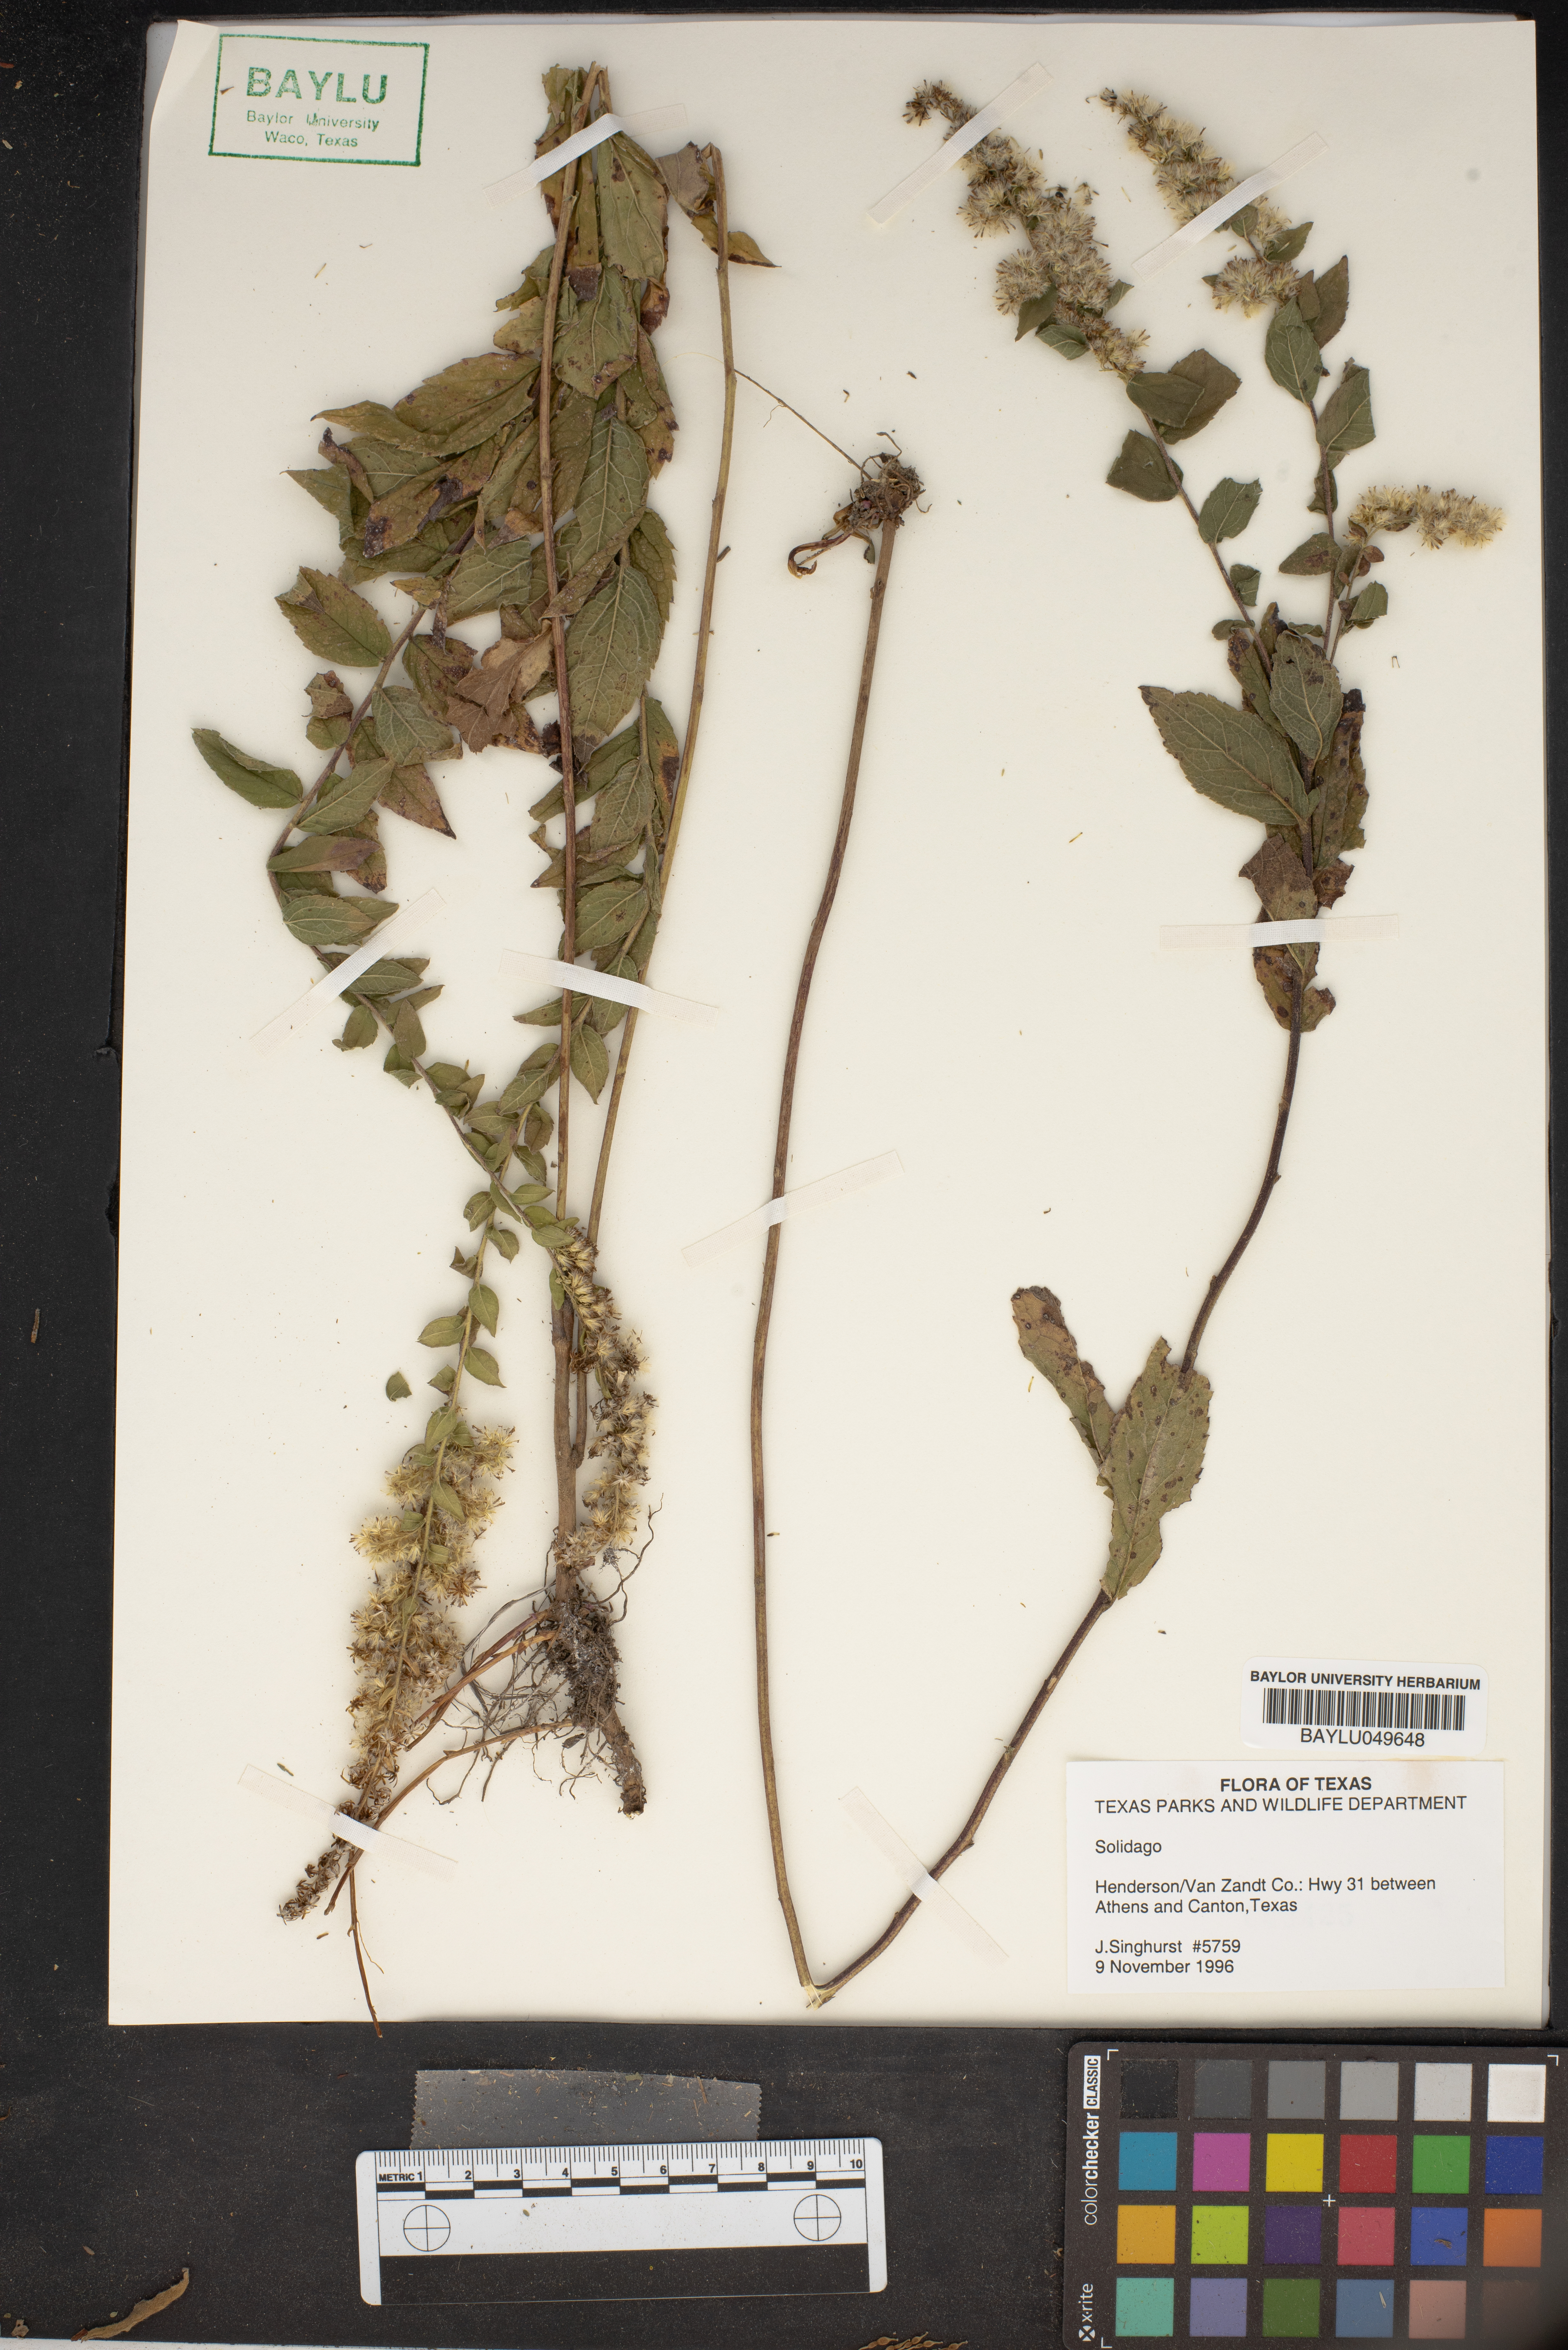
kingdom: Plantae
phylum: Tracheophyta
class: Magnoliopsida
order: Asterales
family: Asteraceae
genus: Solidago
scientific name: Solidago
